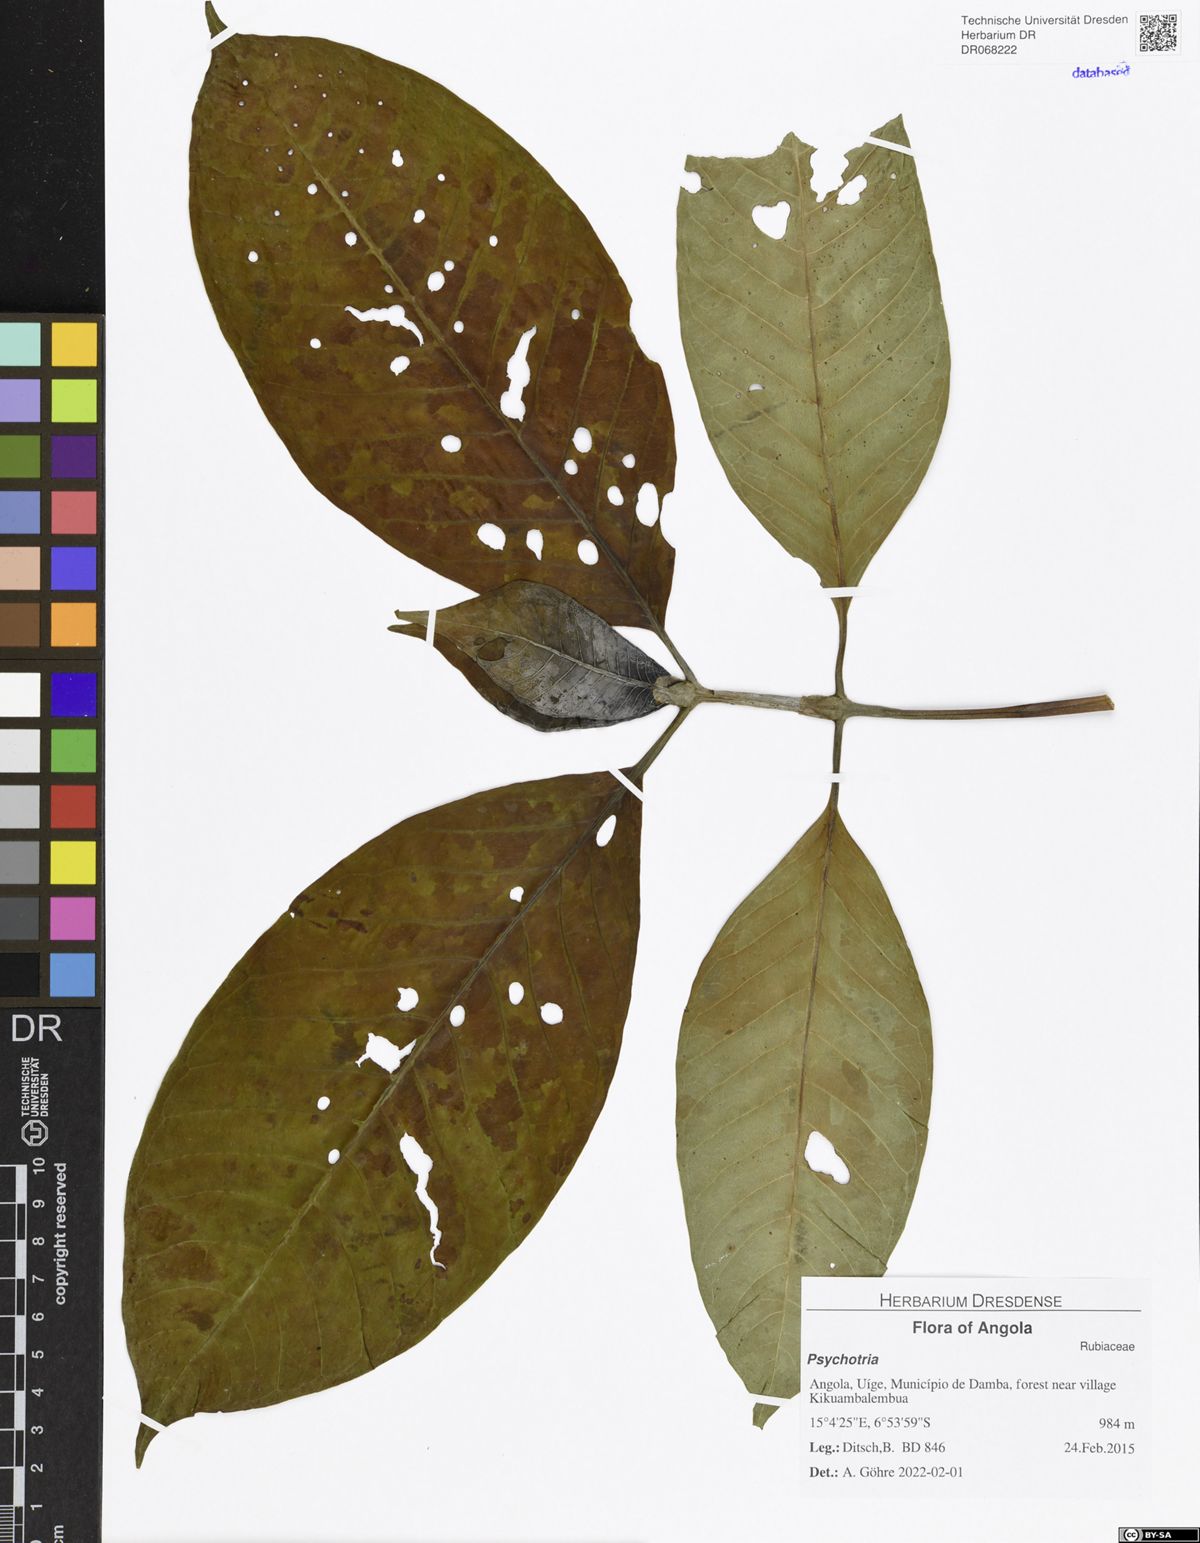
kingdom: Plantae
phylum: Tracheophyta
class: Magnoliopsida
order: Gentianales
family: Rubiaceae
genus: Psychotria
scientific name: Psychotria
